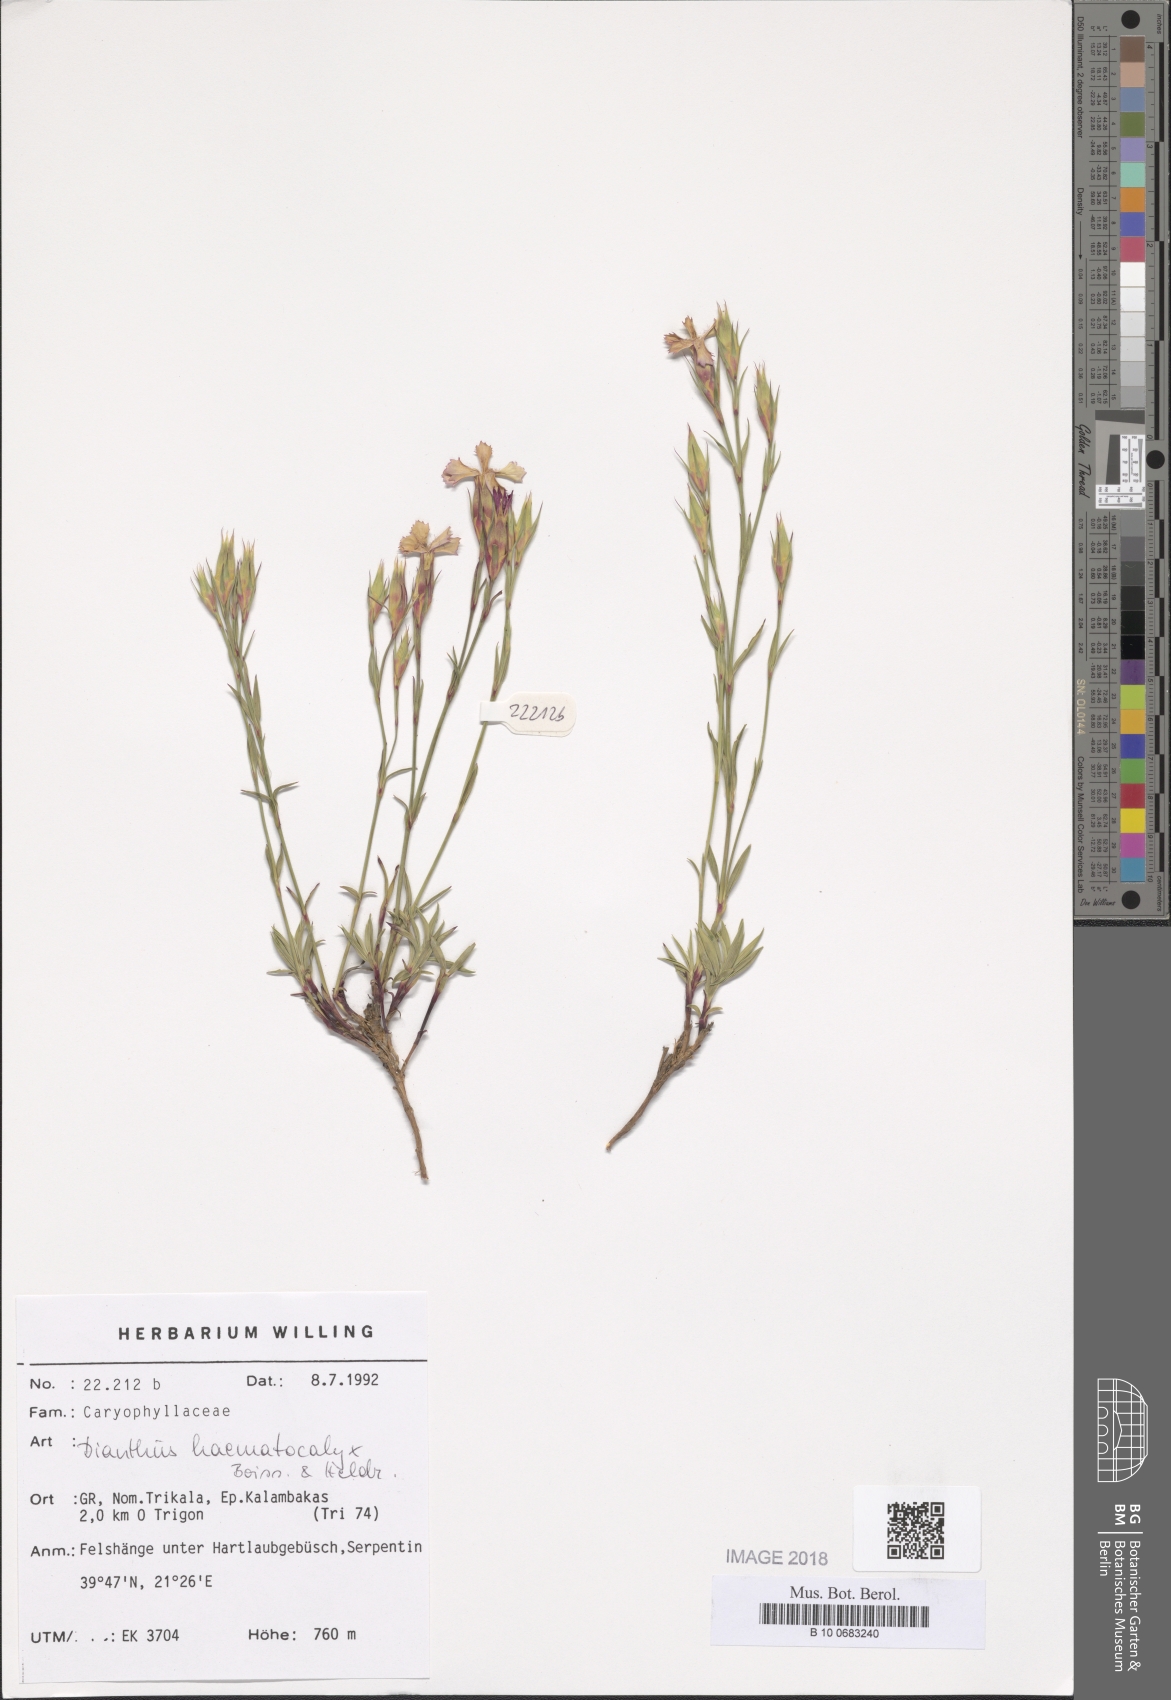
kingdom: Plantae
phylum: Tracheophyta
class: Magnoliopsida
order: Caryophyllales
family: Caryophyllaceae
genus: Dianthus
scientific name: Dianthus haematocalyx
